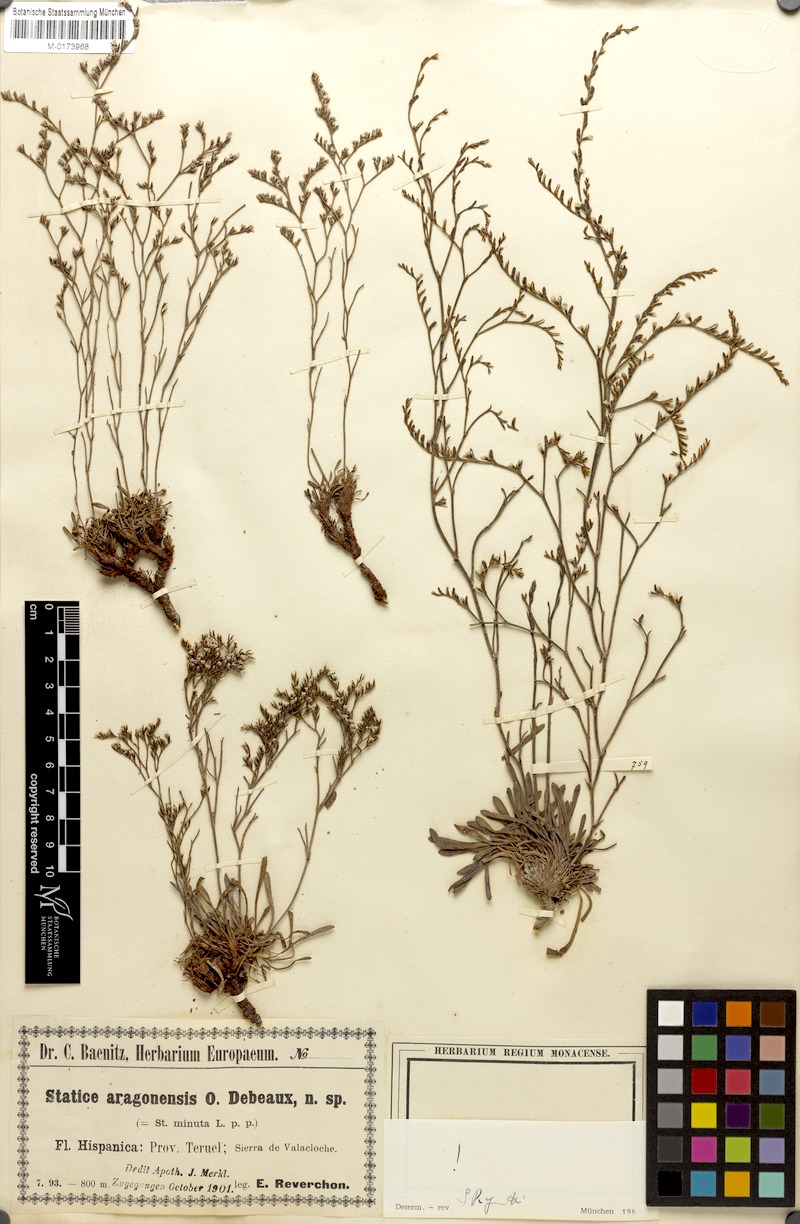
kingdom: Plantae
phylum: Tracheophyta
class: Magnoliopsida
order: Caryophyllales
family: Plumbaginaceae
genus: Limonium
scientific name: Limonium aragonense
